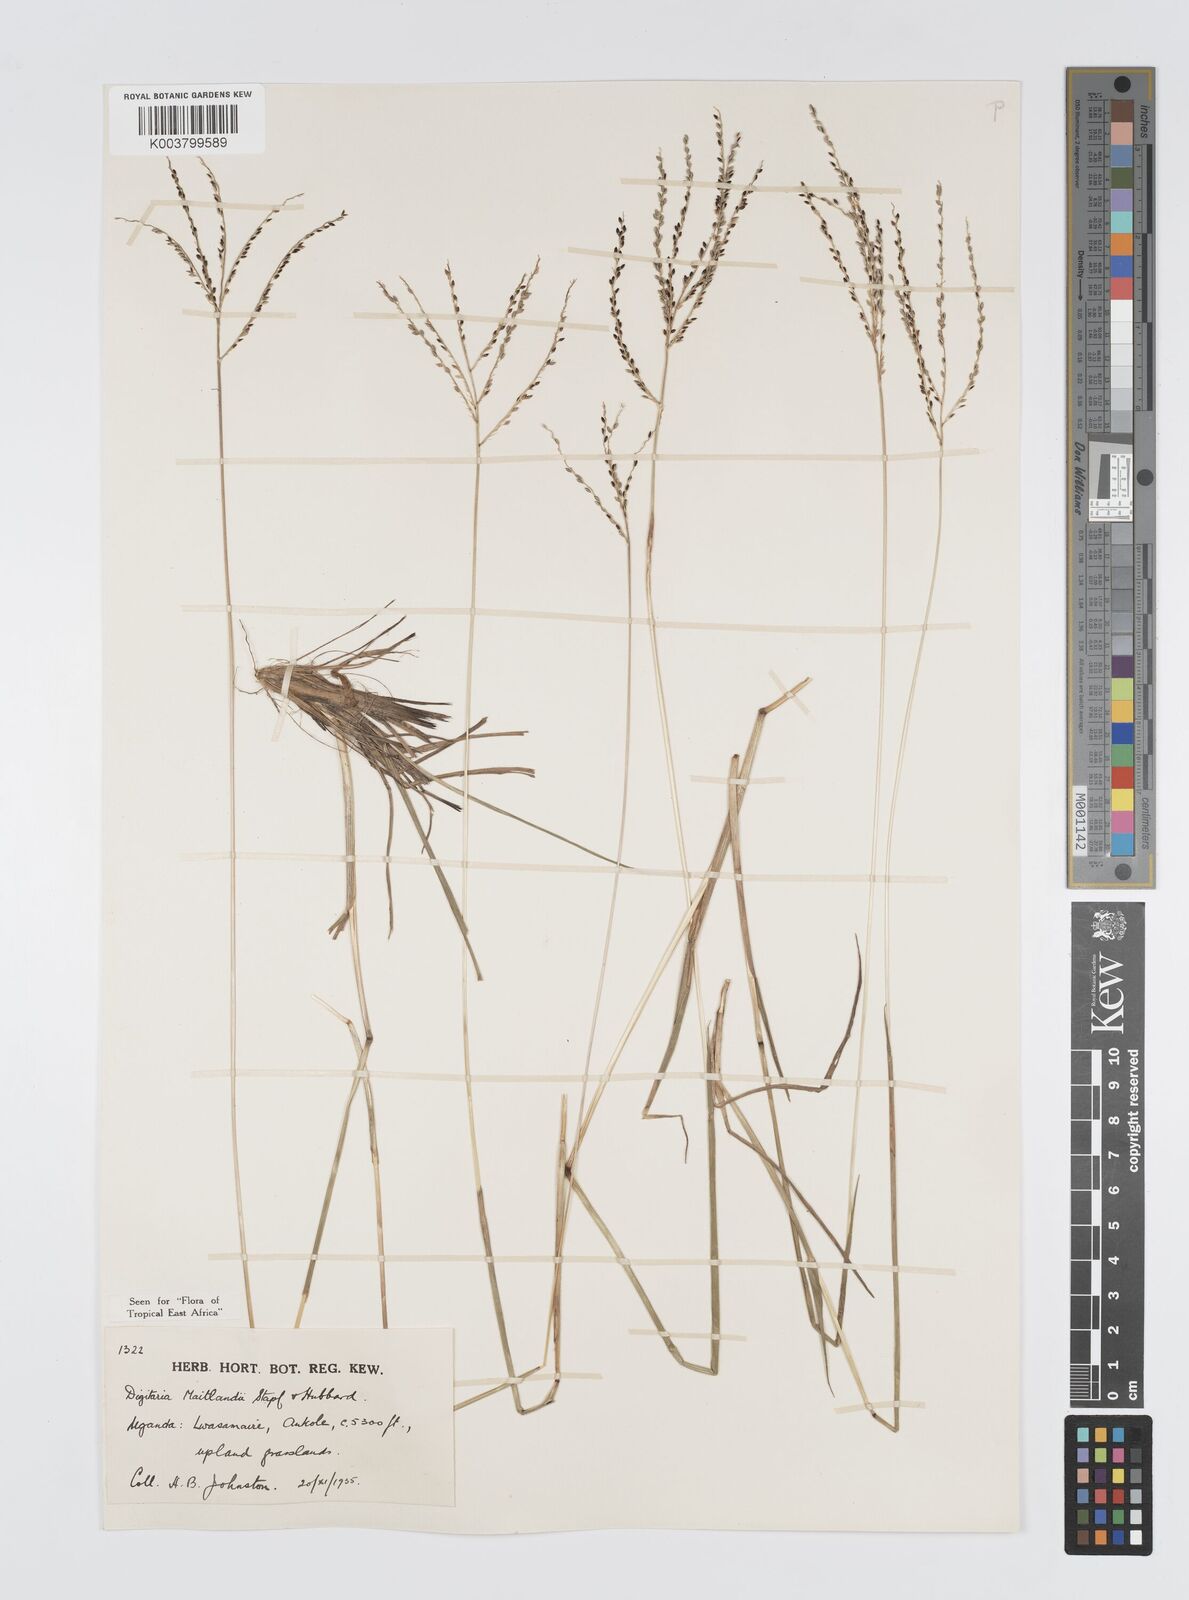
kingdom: Plantae
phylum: Tracheophyta
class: Liliopsida
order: Poales
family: Poaceae
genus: Digitaria
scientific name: Digitaria maitlandii
